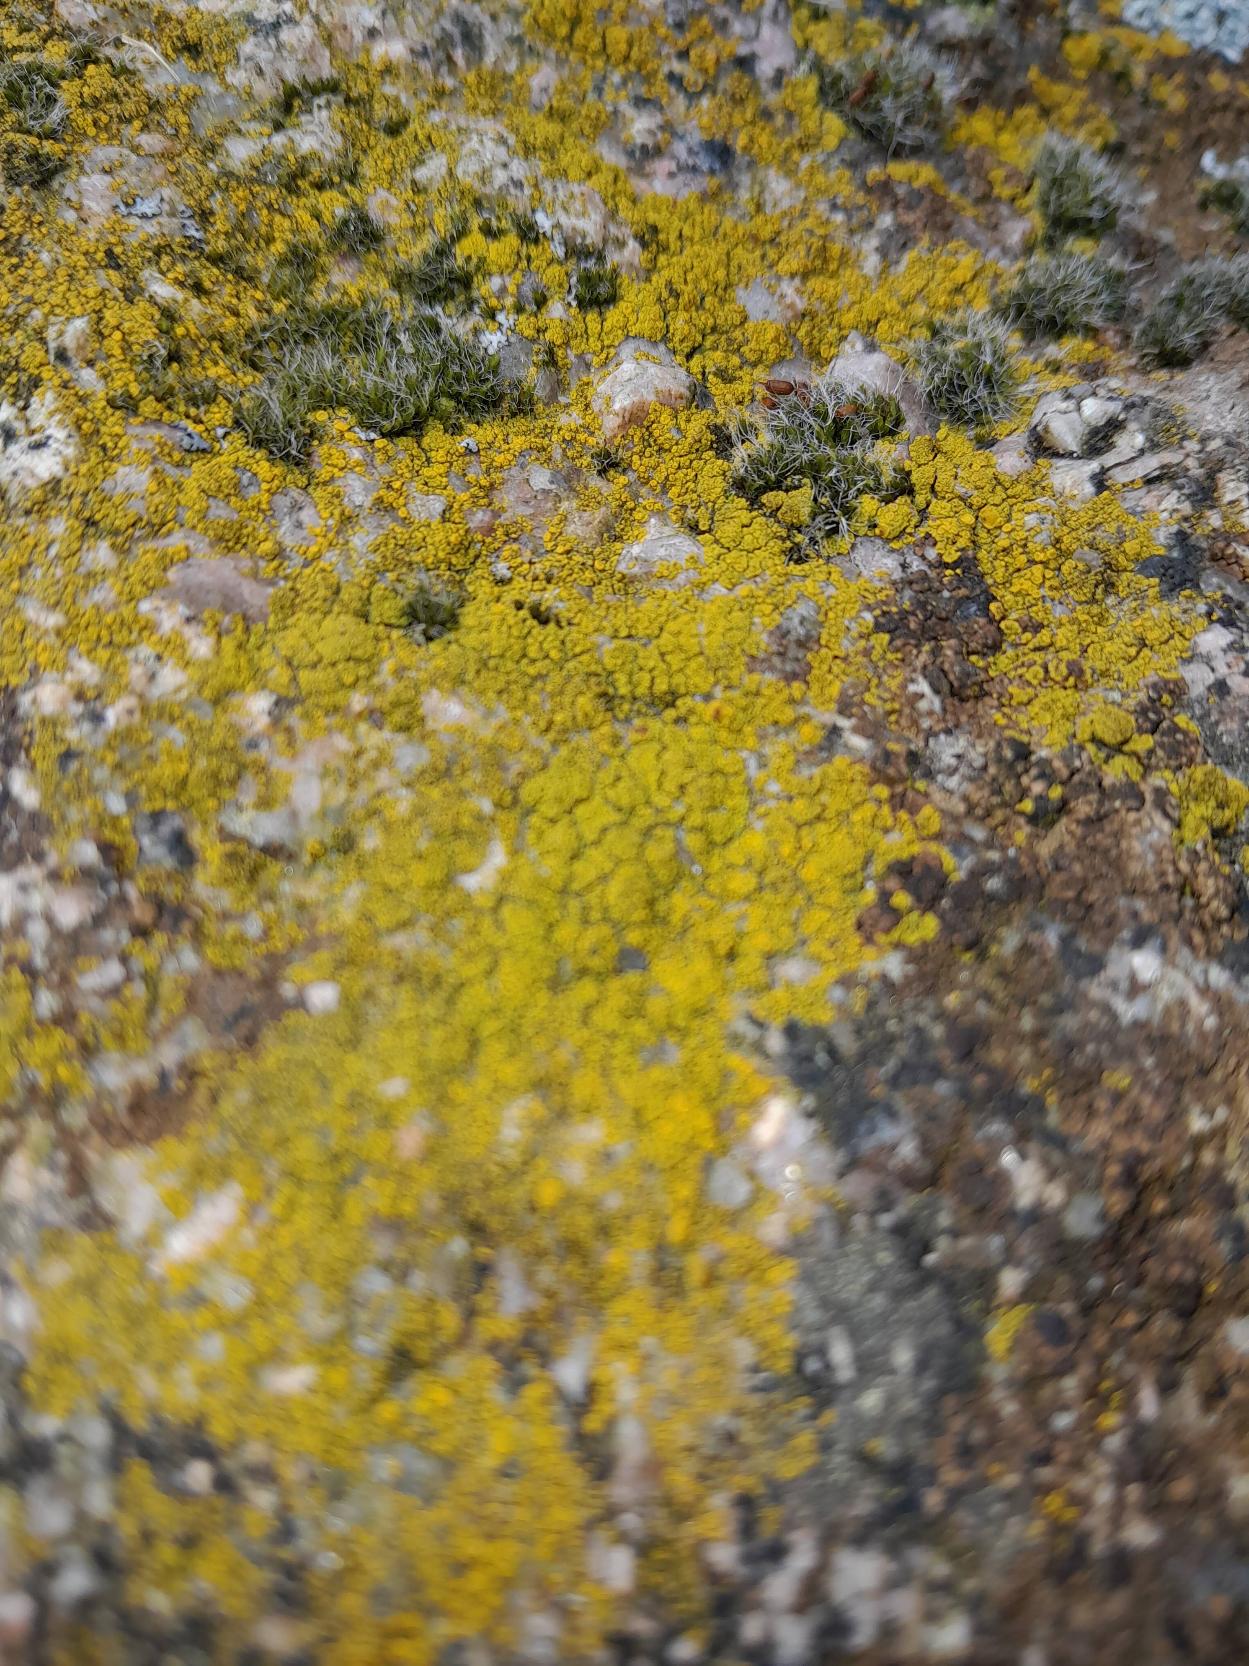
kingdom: Fungi
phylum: Ascomycota
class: Lecanoromycetes
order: Teloschistales
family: Teloschistaceae
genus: Xanthoria
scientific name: Xanthoria parietina
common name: Almindelig væggelav
